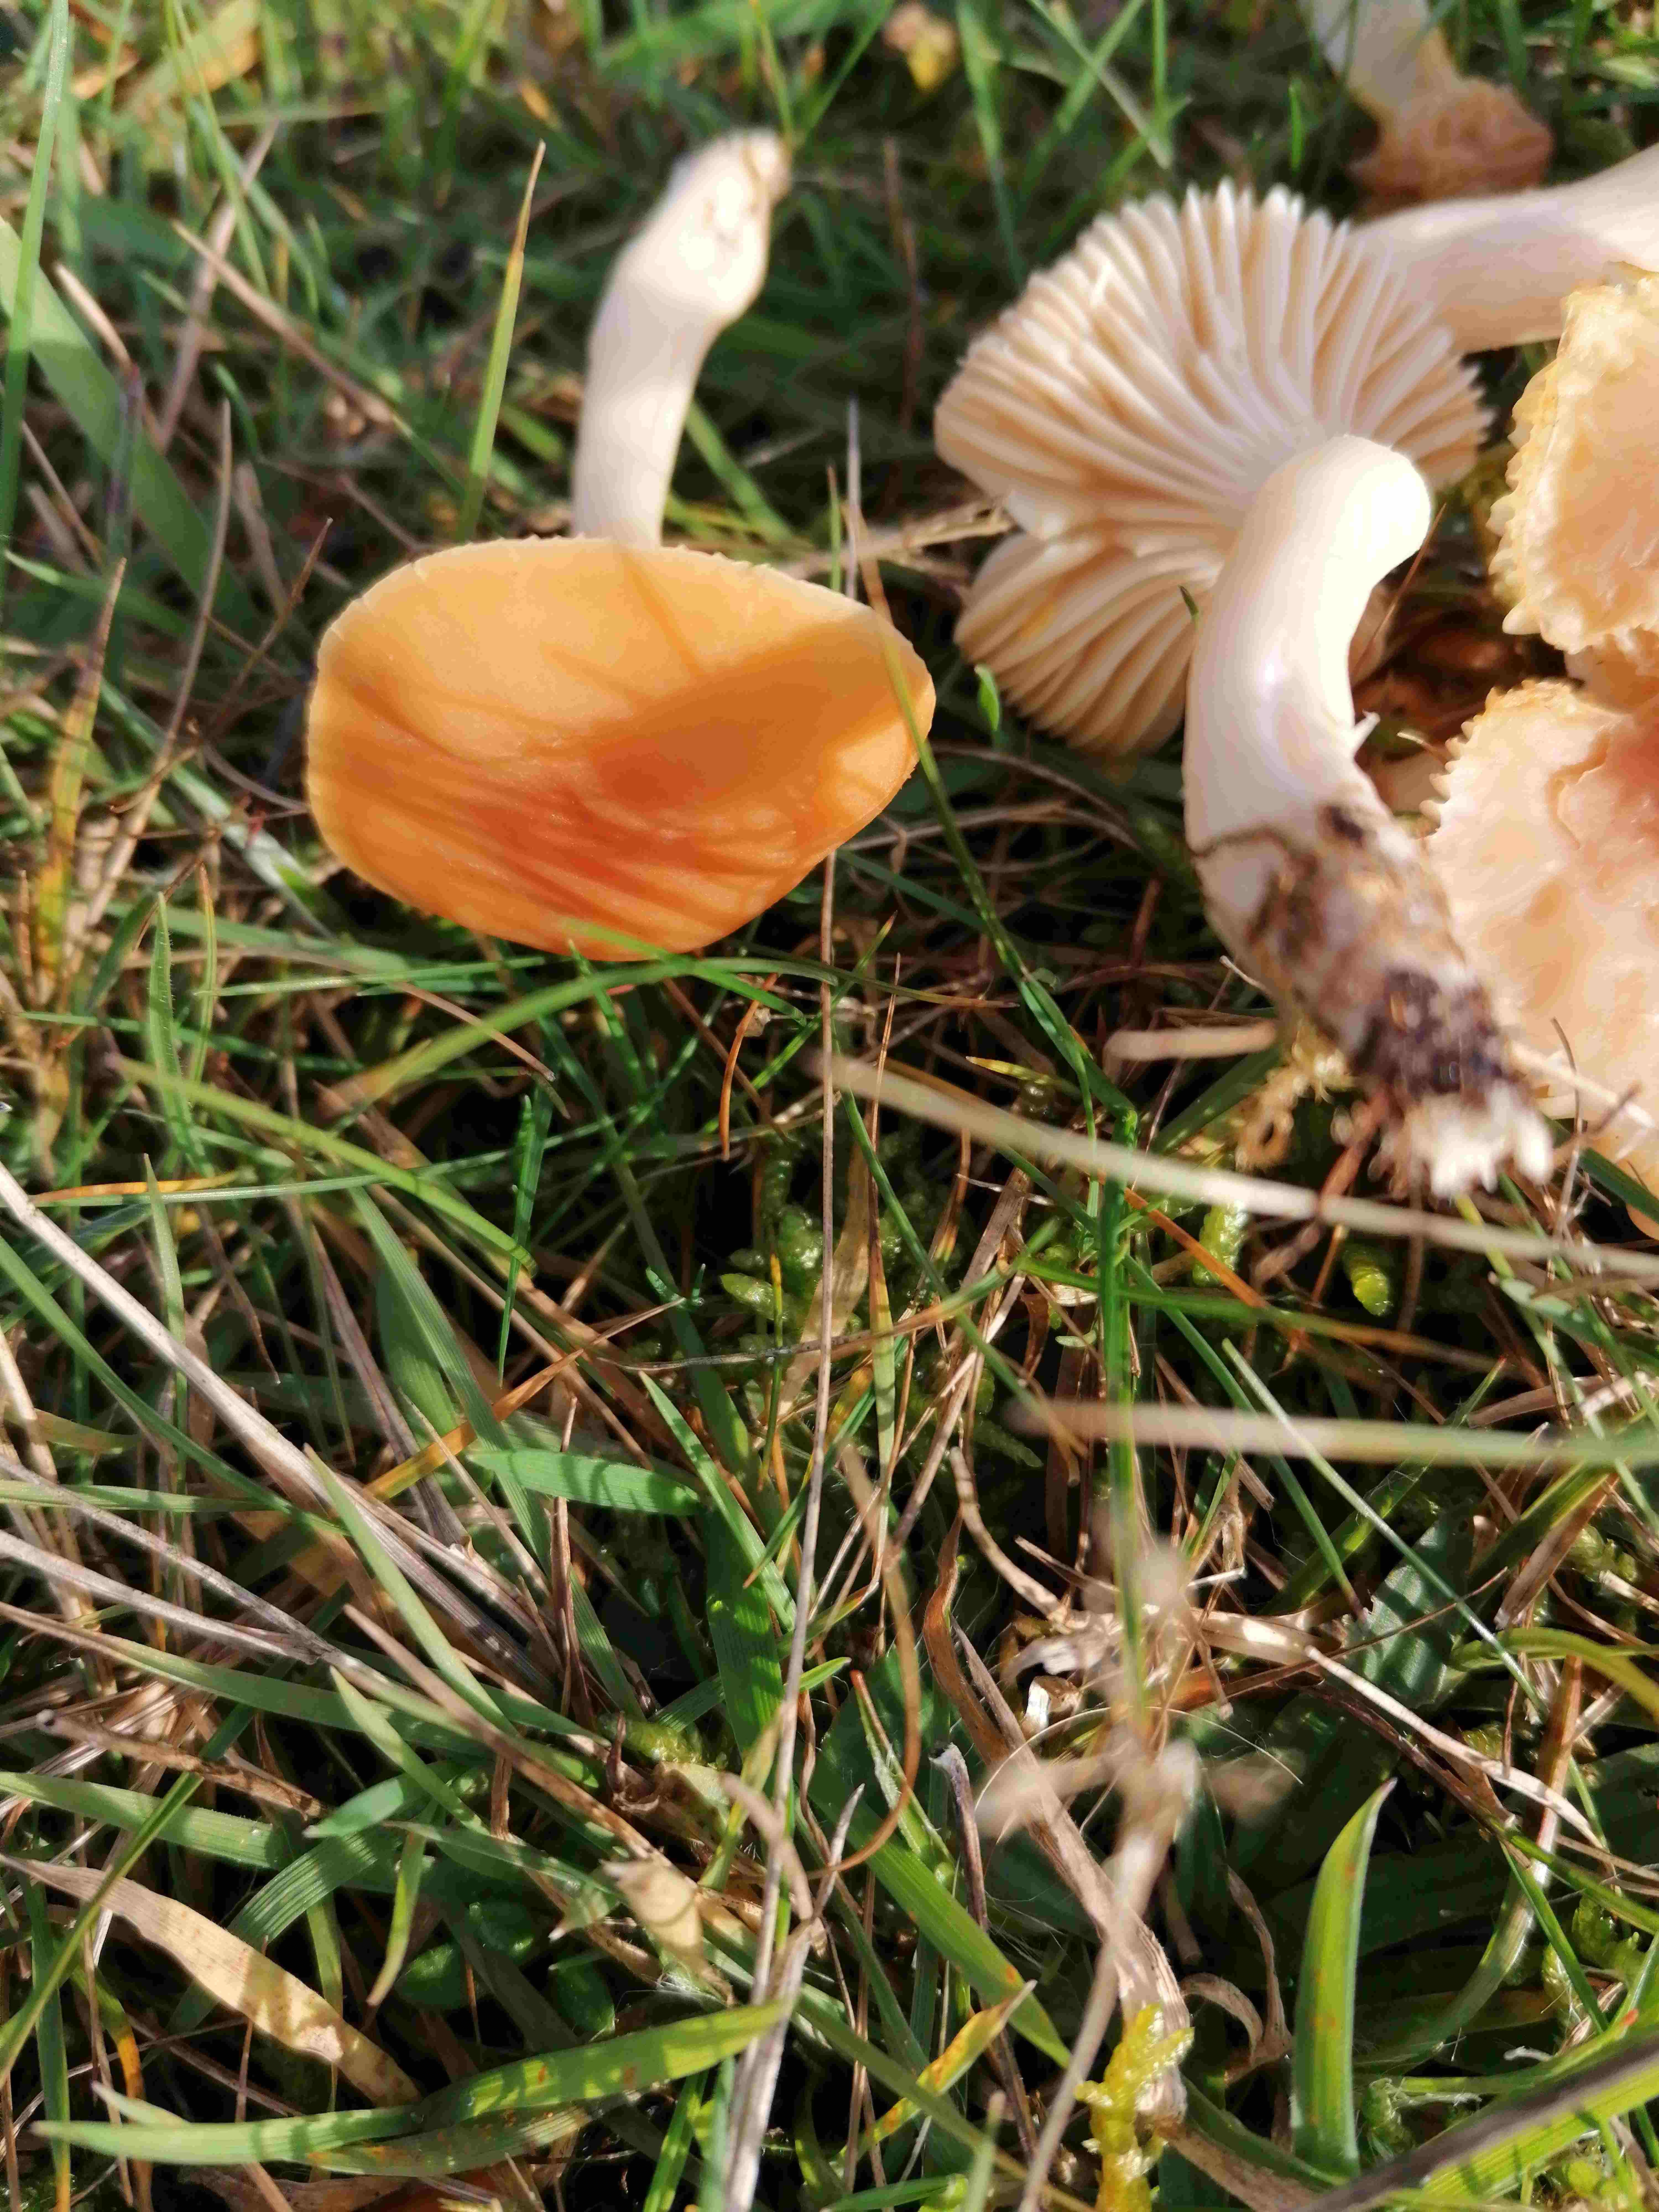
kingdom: Fungi
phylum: Basidiomycota
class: Agaricomycetes
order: Agaricales
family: Hygrophoraceae
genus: Cuphophyllus
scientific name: Cuphophyllus pratensis
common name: eng-vokshat
